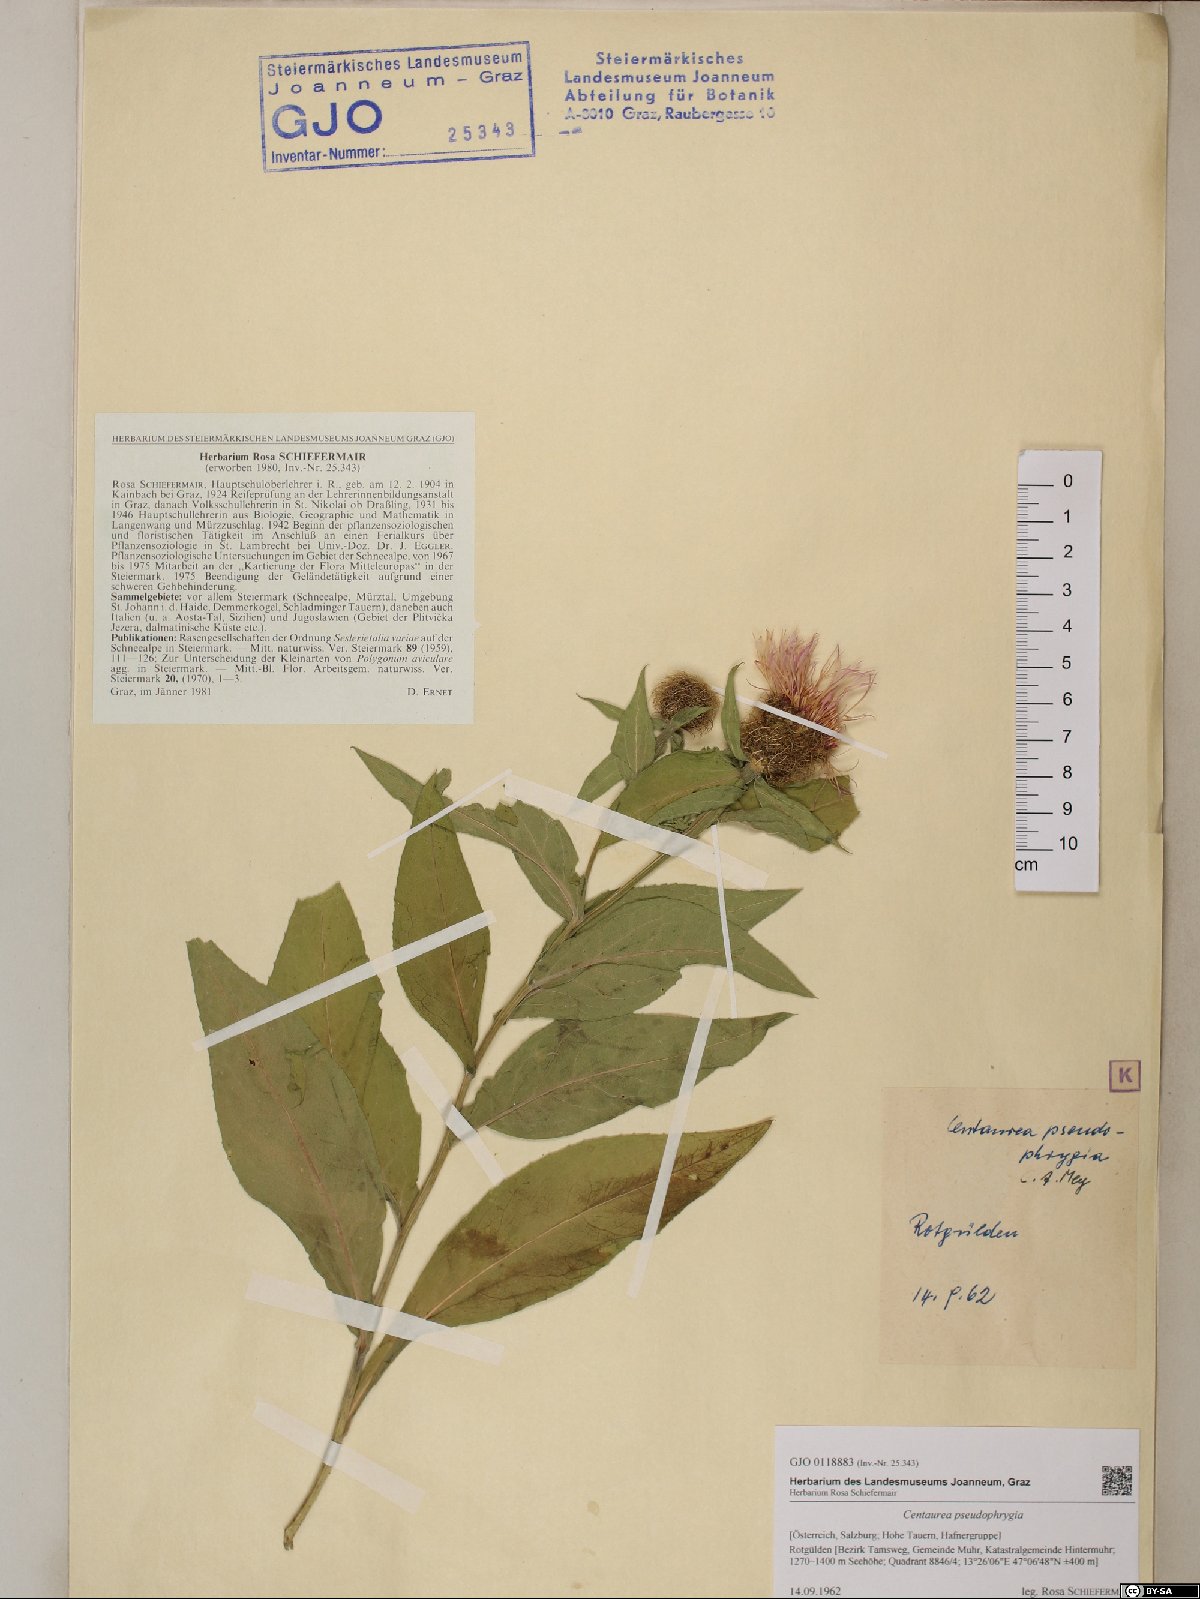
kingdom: Plantae
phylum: Tracheophyta
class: Magnoliopsida
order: Asterales
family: Asteraceae
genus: Centaurea
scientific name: Centaurea pseudophrygia
